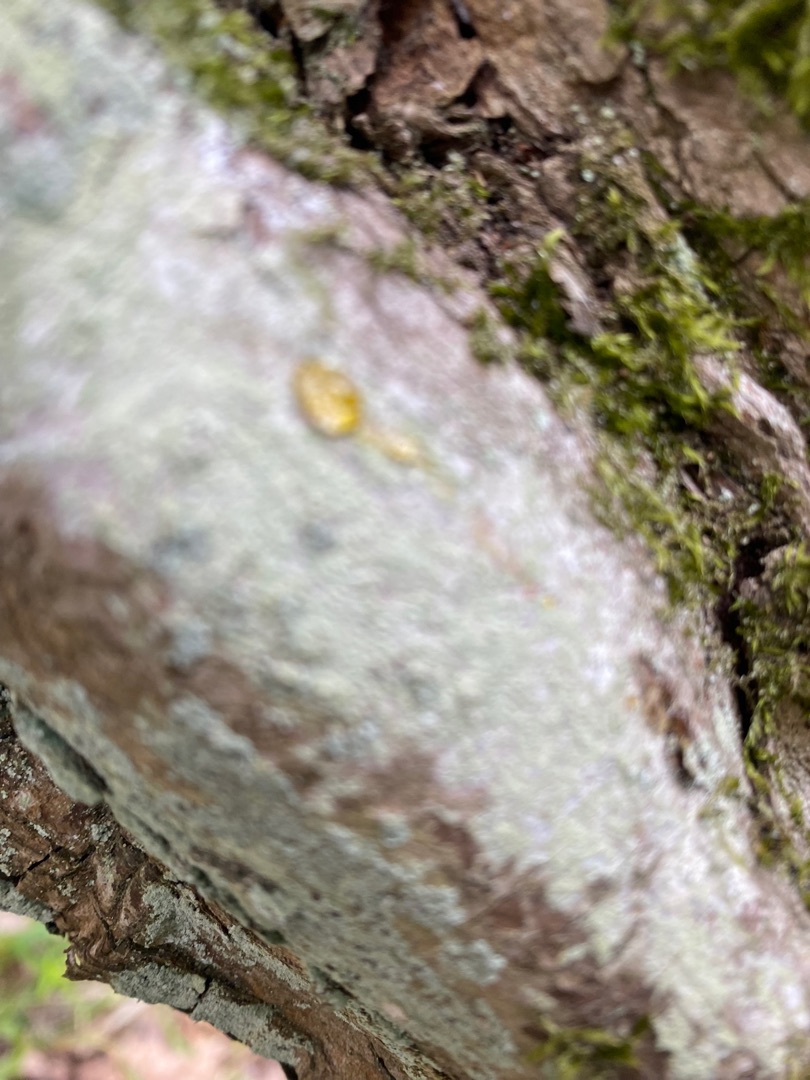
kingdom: Fungi
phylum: Ascomycota
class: Lecanoromycetes
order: Lecanorales
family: Stereocaulaceae
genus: Lepraria
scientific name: Lepraria
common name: Støvlav
